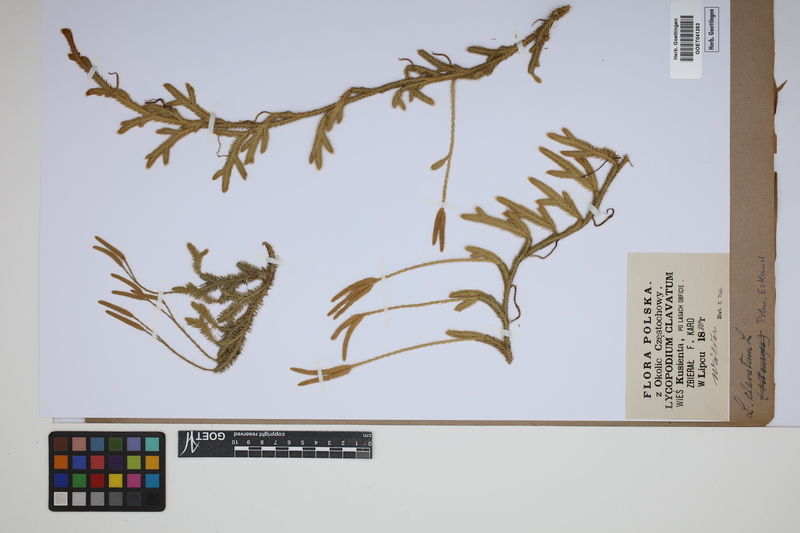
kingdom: Plantae
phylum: Tracheophyta
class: Lycopodiopsida
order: Lycopodiales
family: Lycopodiaceae
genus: Lycopodium
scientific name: Lycopodium clavatum
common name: Stag's-horn clubmoss
